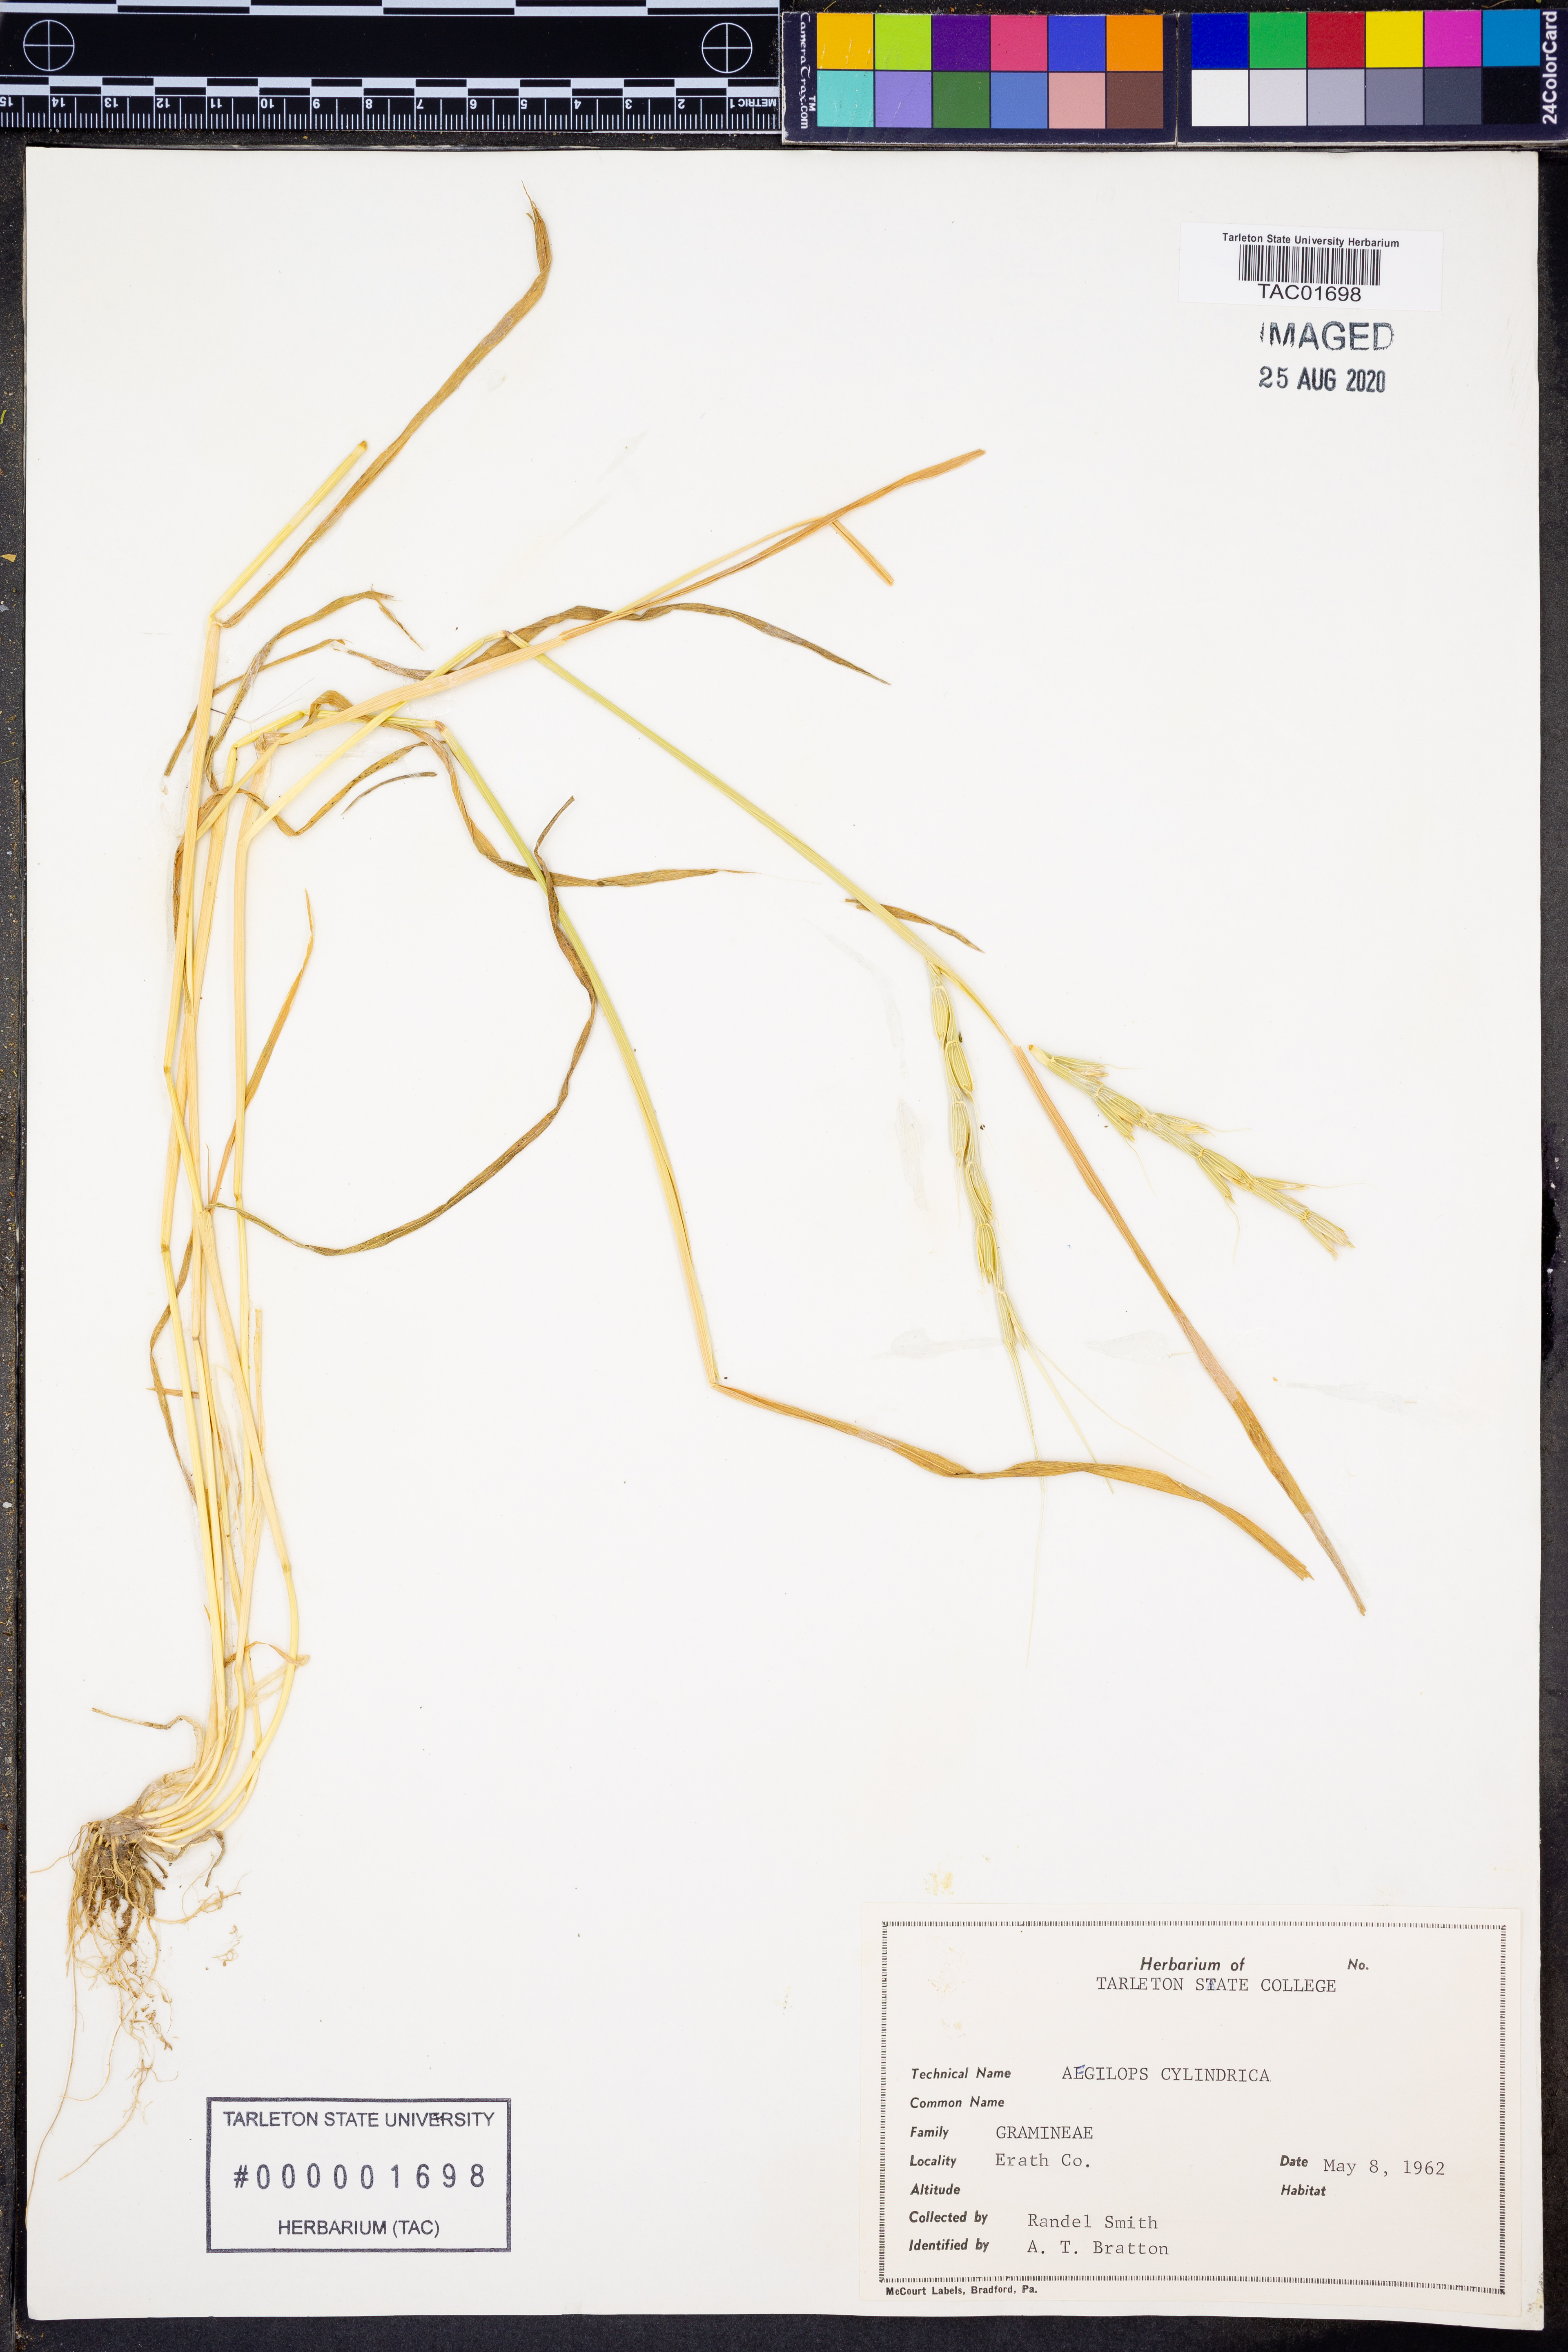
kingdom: Plantae
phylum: Tracheophyta
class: Liliopsida
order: Poales
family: Poaceae
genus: Aegilops
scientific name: Aegilops cylindrica
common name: Jointed goatgrass
